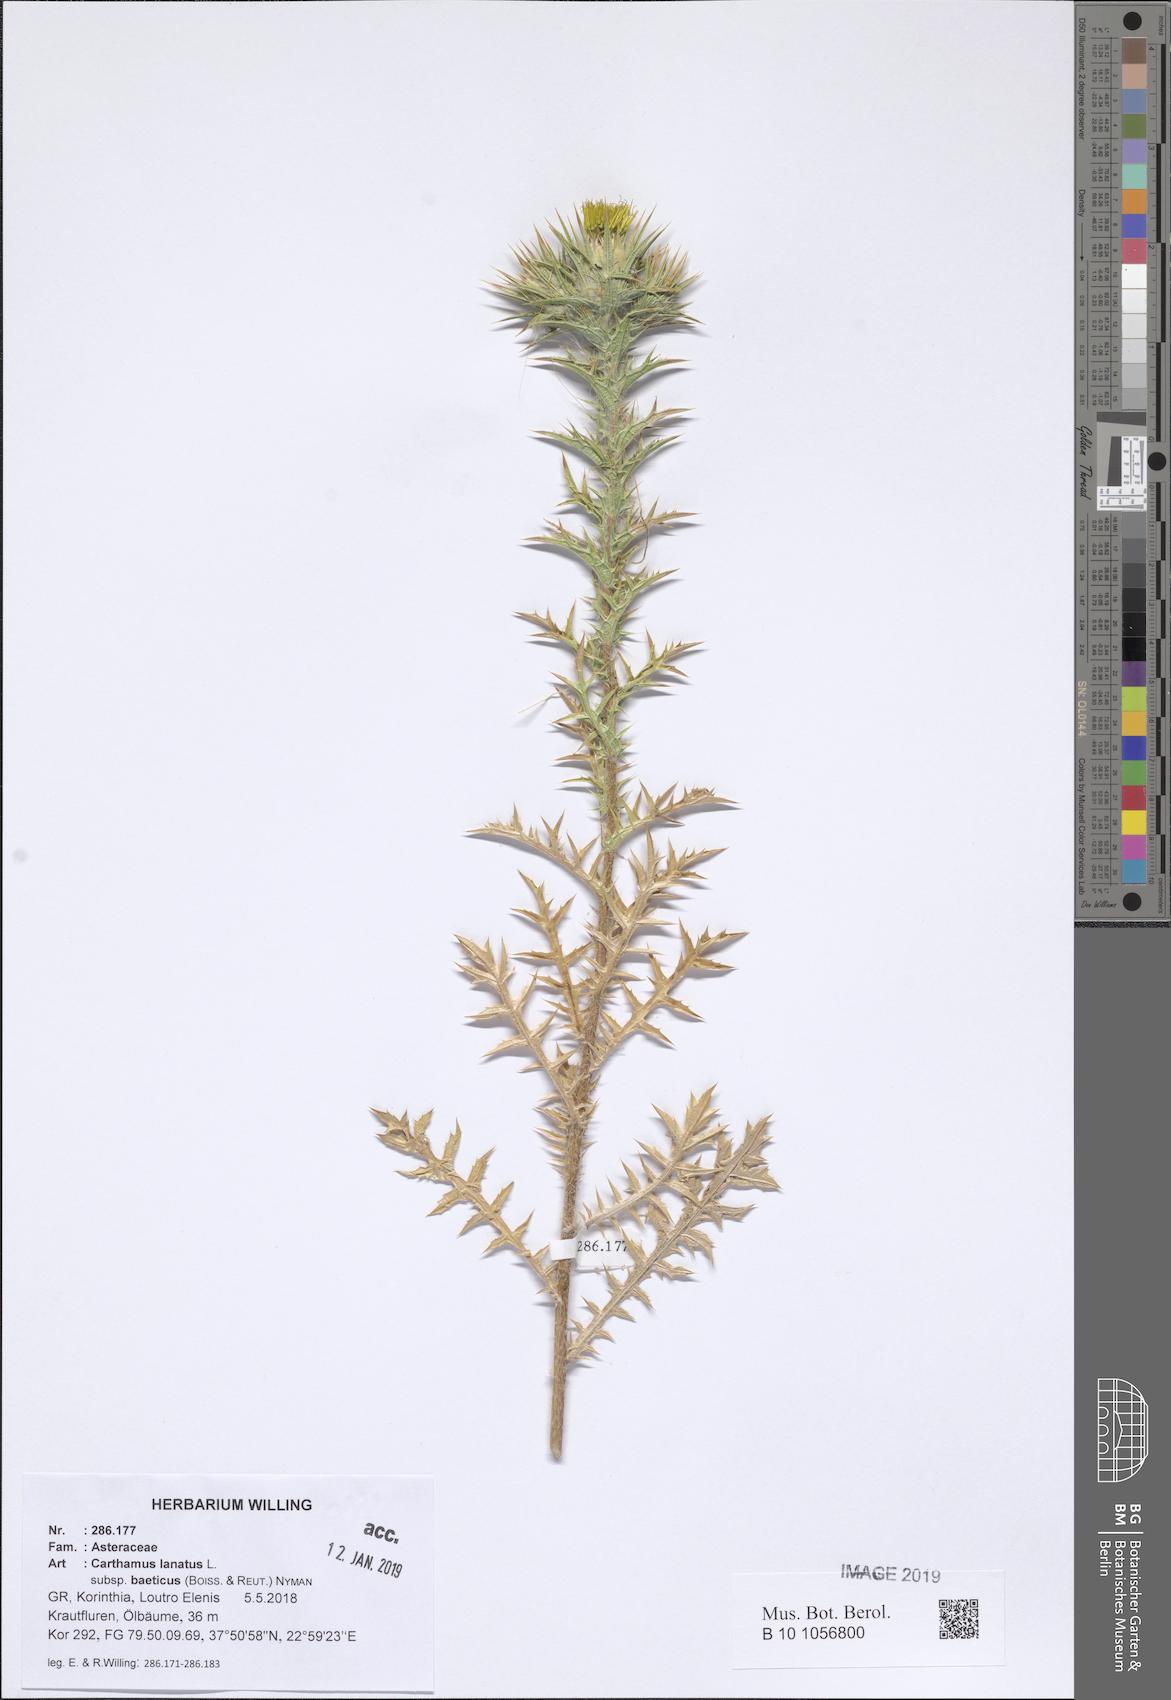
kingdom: Plantae
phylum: Tracheophyta
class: Magnoliopsida
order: Asterales
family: Asteraceae
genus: Carthamus
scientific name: Carthamus creticus
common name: Smooth distaff thistle
